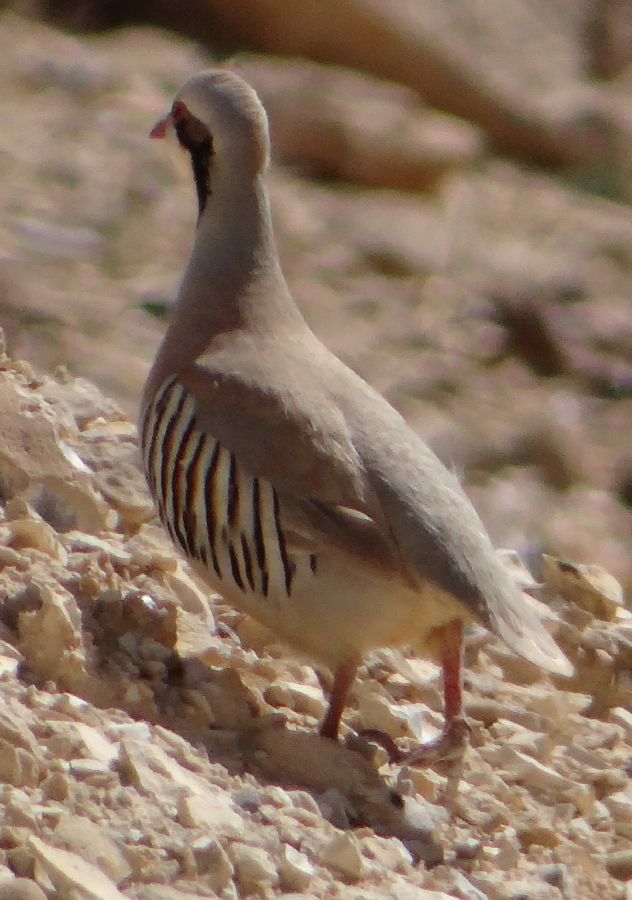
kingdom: Animalia
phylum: Chordata
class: Aves
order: Galliformes
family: Phasianidae
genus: Alectoris
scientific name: Alectoris chukar
